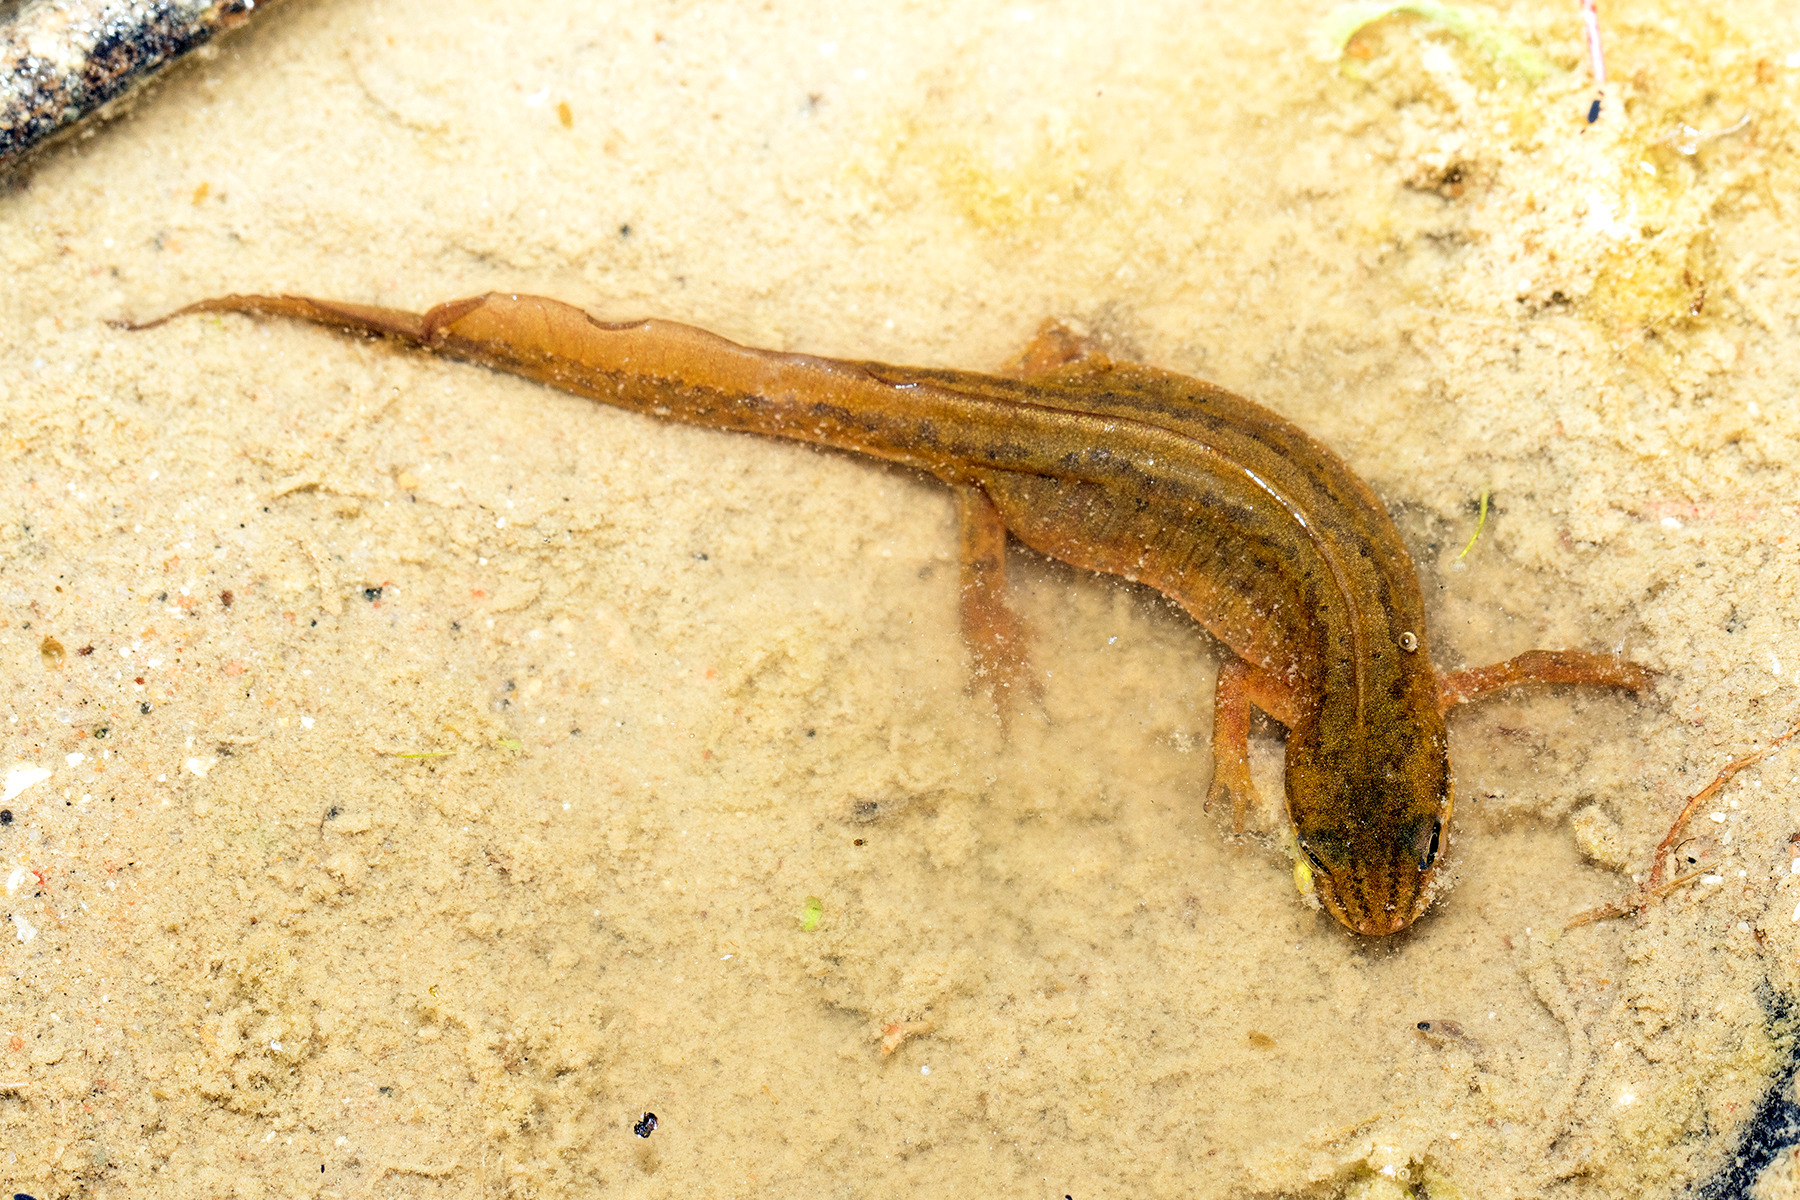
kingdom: Animalia
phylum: Chordata
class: Amphibia
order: Caudata
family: Salamandridae
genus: Lissotriton
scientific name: Lissotriton vulgaris
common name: Lille vandsalamander
